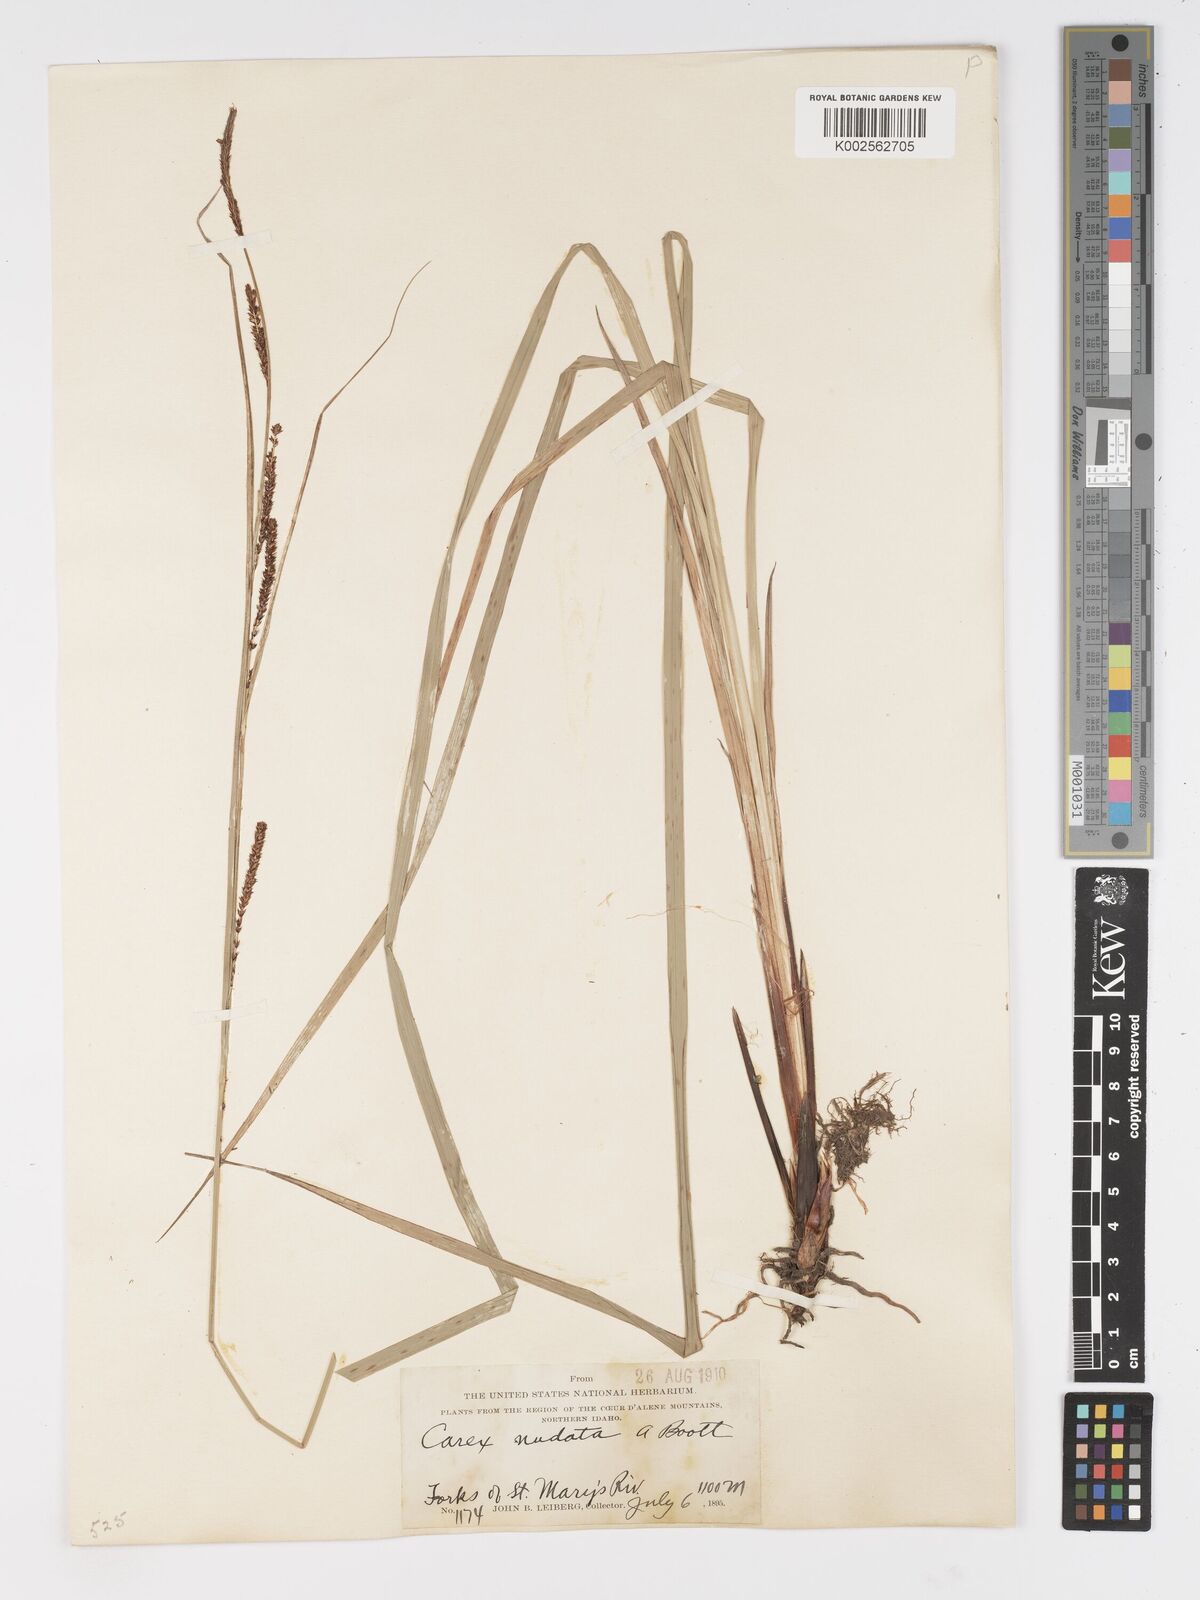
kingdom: Plantae
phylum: Tracheophyta
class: Liliopsida
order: Poales
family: Cyperaceae
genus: Carex
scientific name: Carex nudata
